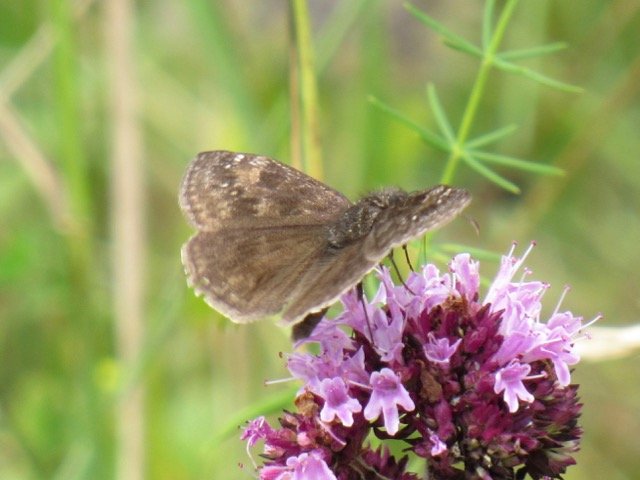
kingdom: Animalia
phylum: Arthropoda
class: Insecta
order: Lepidoptera
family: Hesperiidae
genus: Gesta
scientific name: Gesta
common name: Wild Indigo Duskywing
